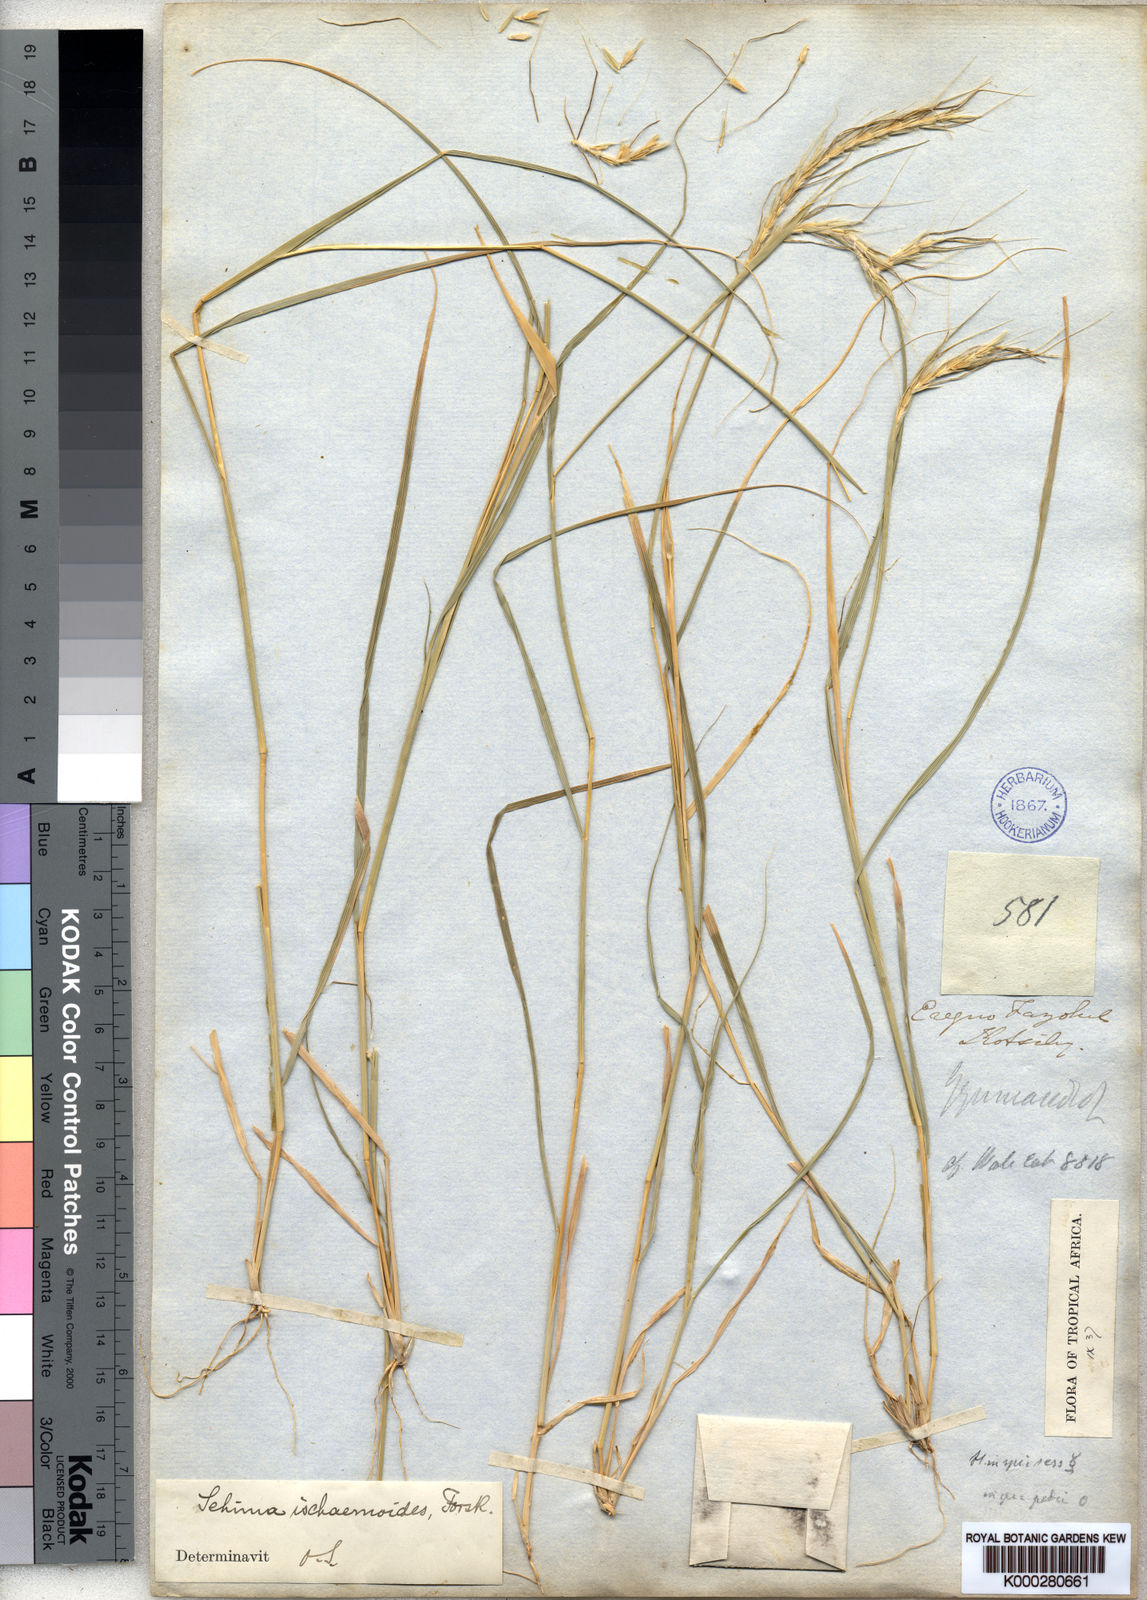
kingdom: Plantae
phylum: Tracheophyta
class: Liliopsida
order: Poales
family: Poaceae
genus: Sehima
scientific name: Sehima ischaemoides
